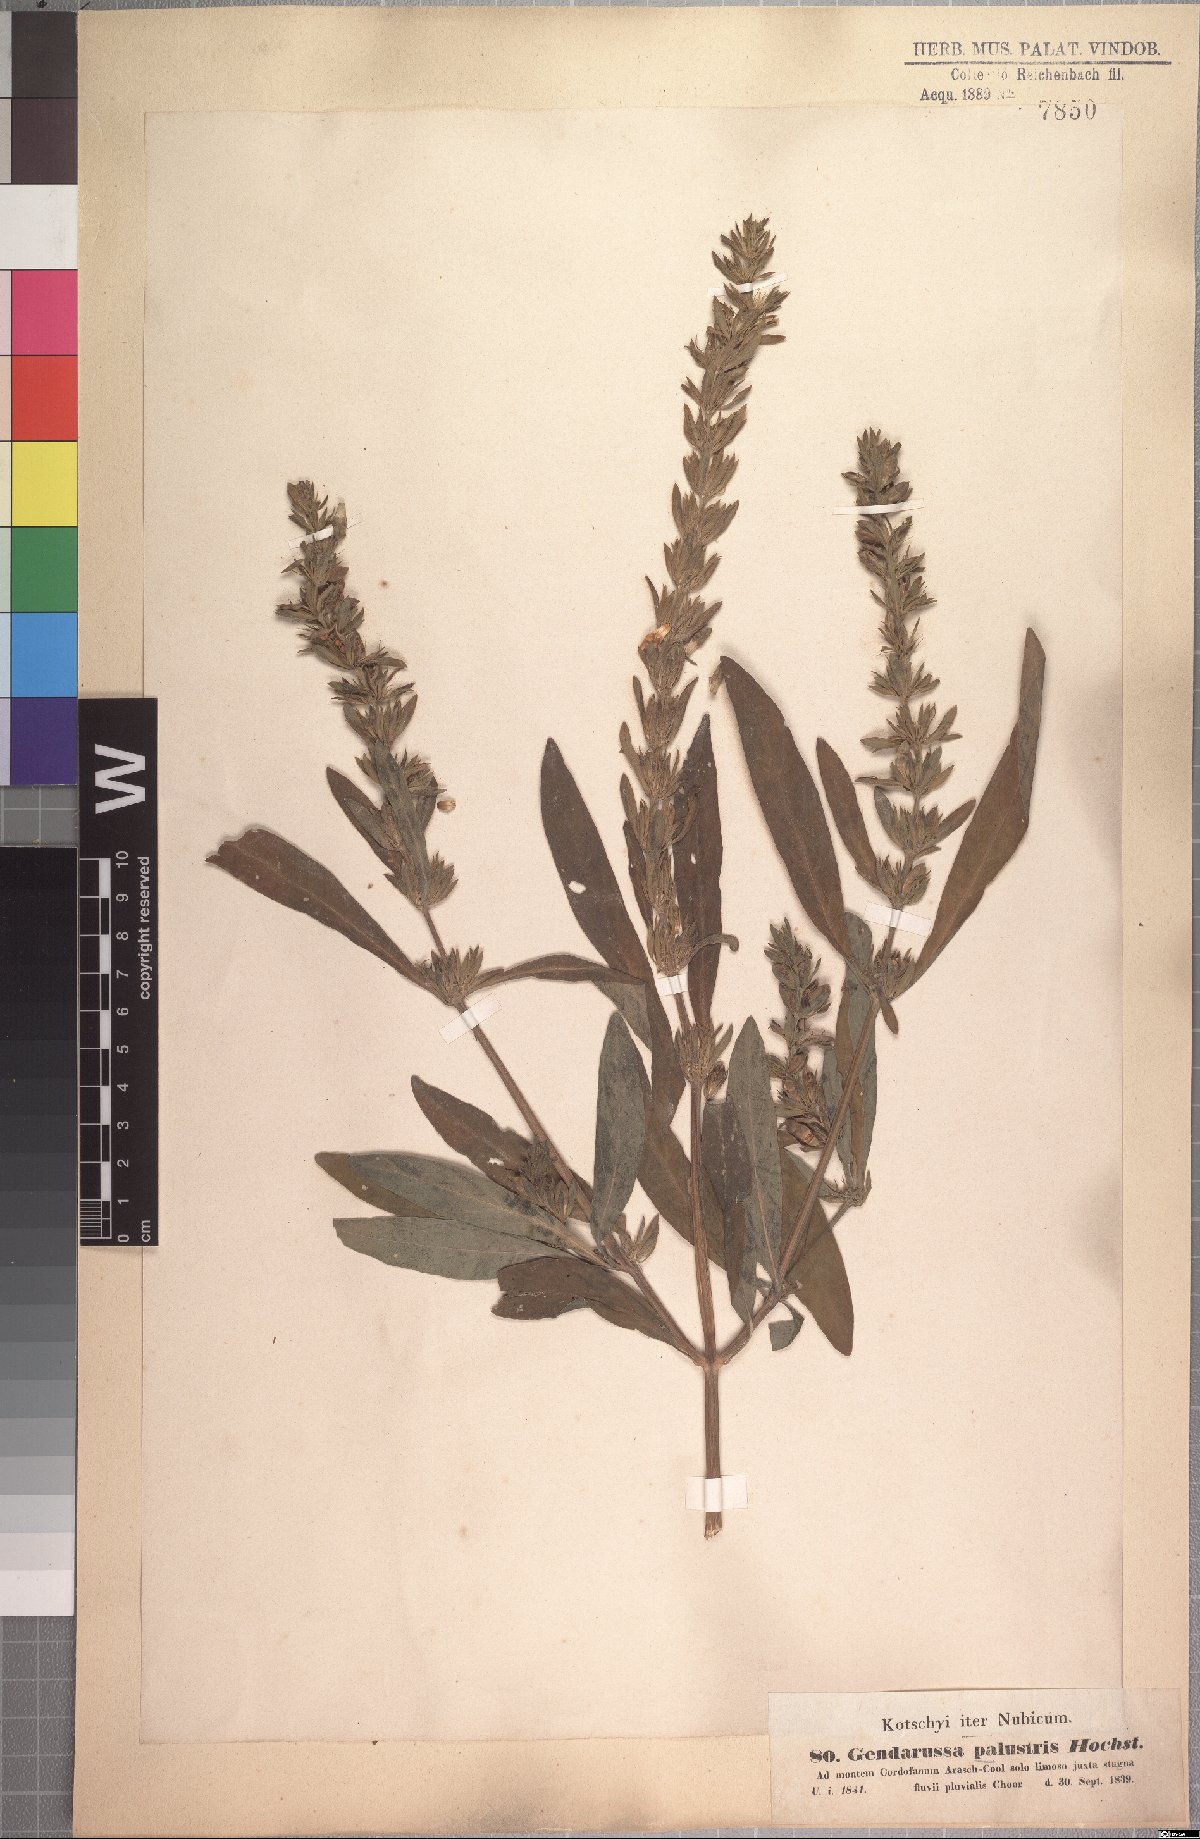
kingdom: Plantae
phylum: Tracheophyta
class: Magnoliopsida
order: Lamiales
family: Acanthaceae
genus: Justicia
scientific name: Justicia flava
